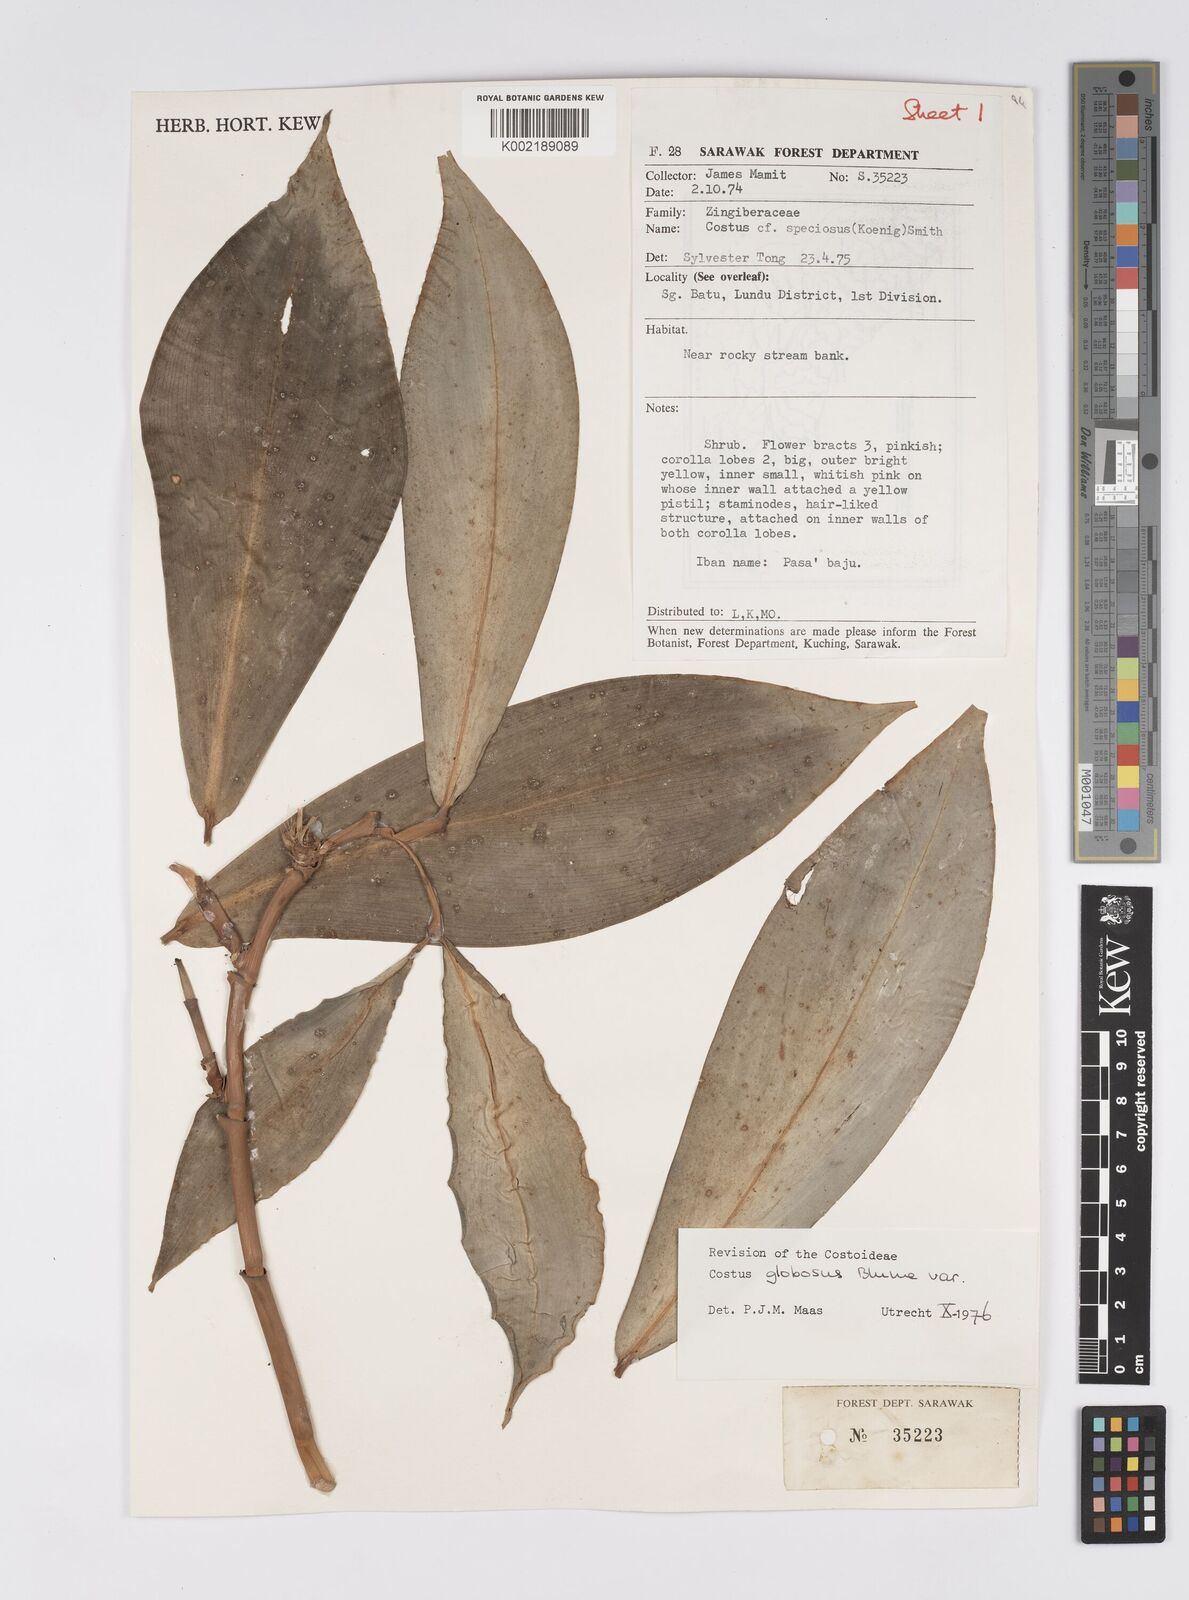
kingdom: Plantae
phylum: Tracheophyta
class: Liliopsida
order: Zingiberales
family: Costaceae
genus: Hellenia
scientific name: Hellenia globosa
